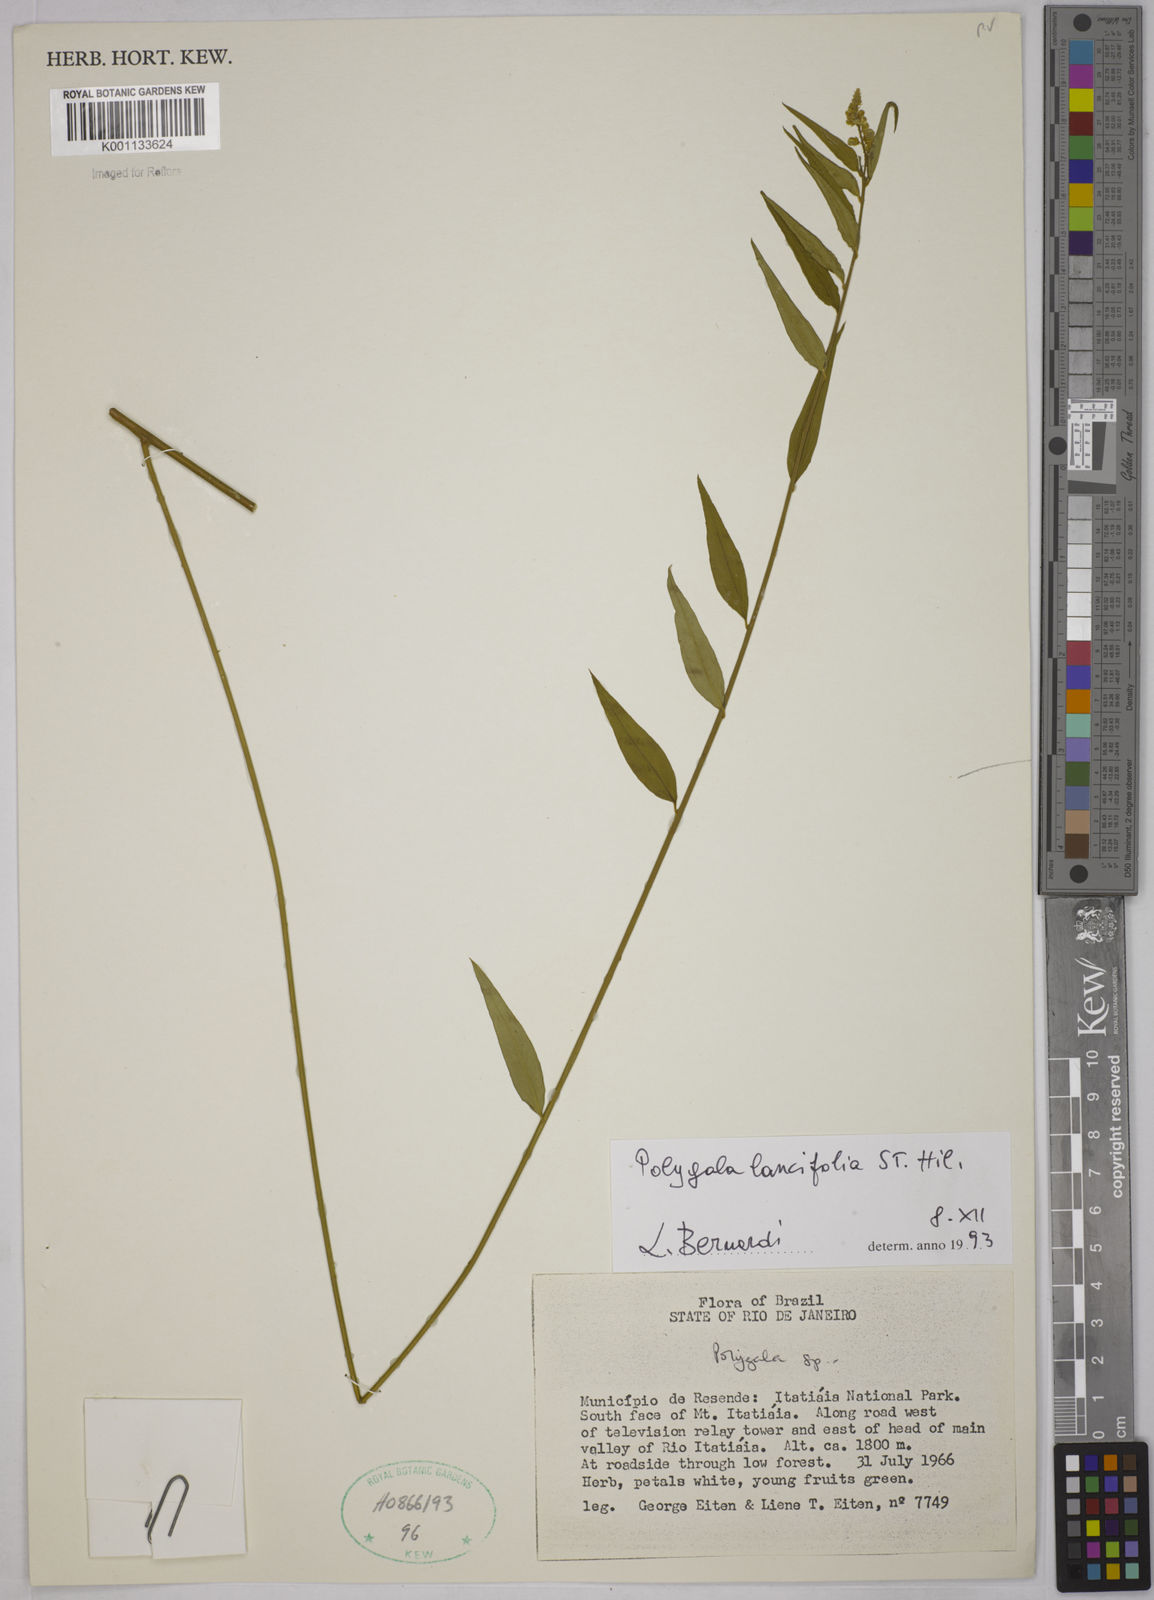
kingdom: Plantae
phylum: Tracheophyta
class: Magnoliopsida
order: Fabales
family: Polygalaceae
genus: Polygala
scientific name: Polygala lancifolia
